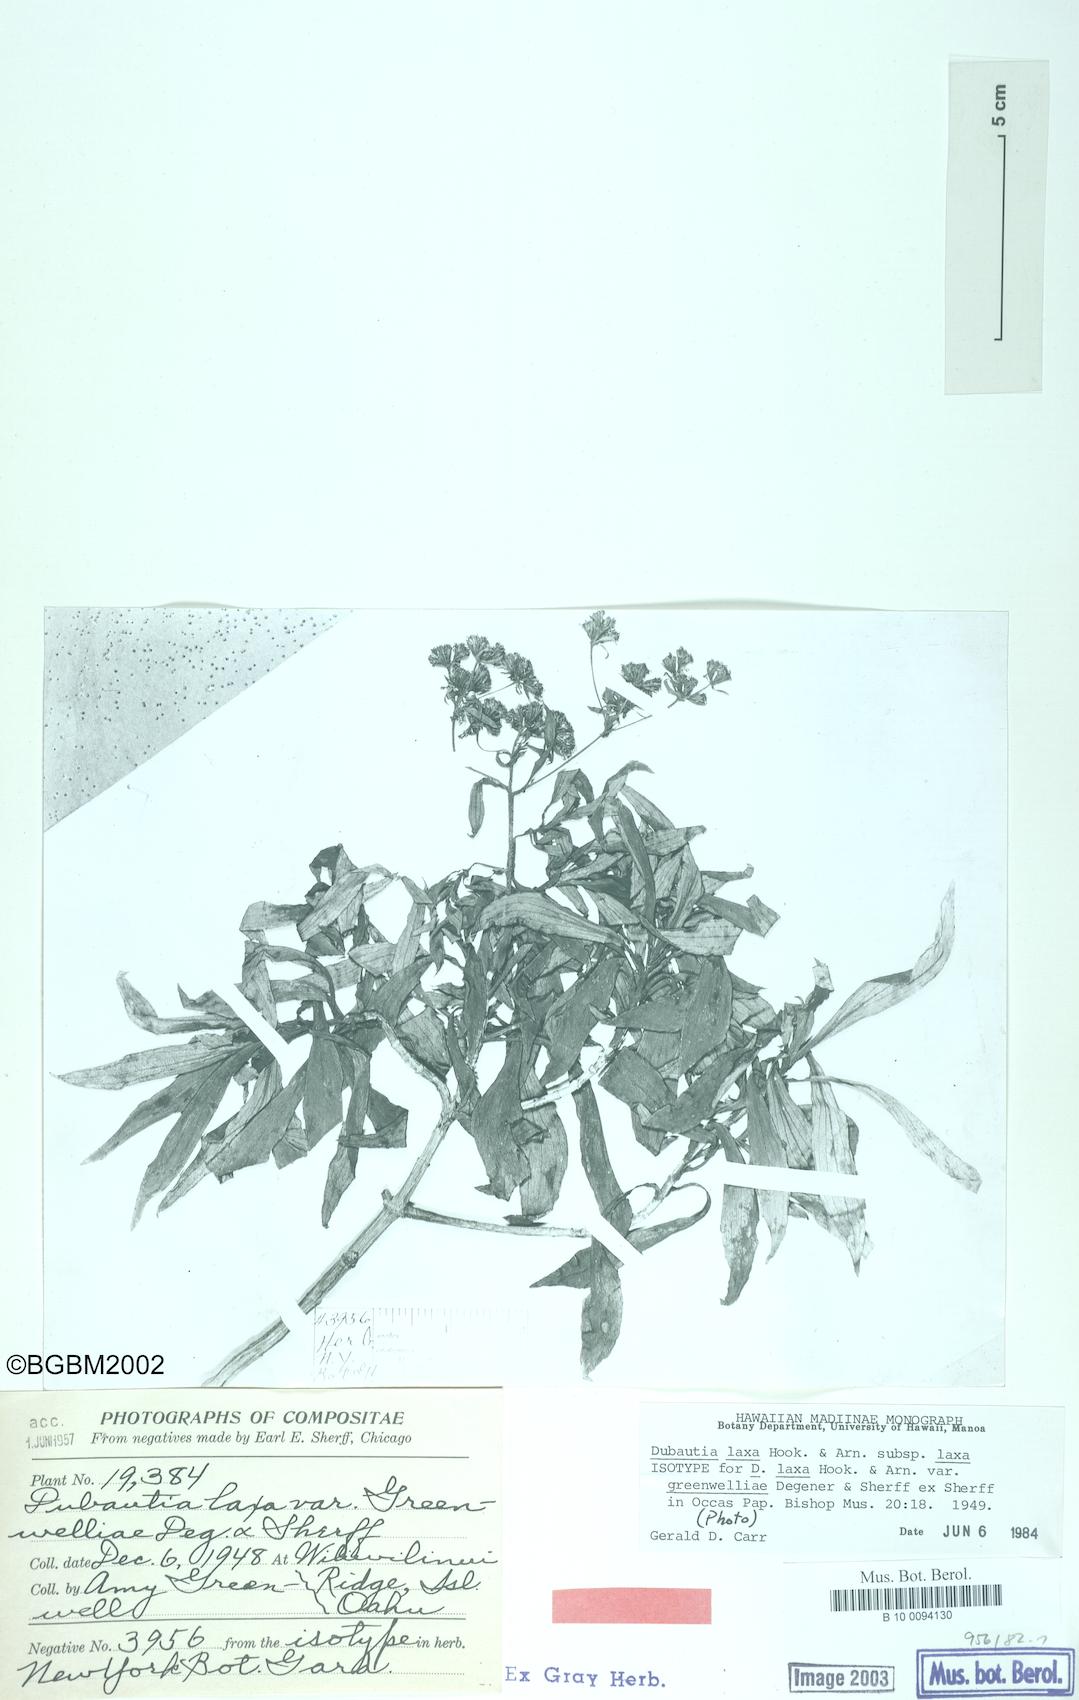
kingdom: Plantae
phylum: Tracheophyta
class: Magnoliopsida
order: Asterales
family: Asteraceae
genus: Dubautia
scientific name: Dubautia laxa
